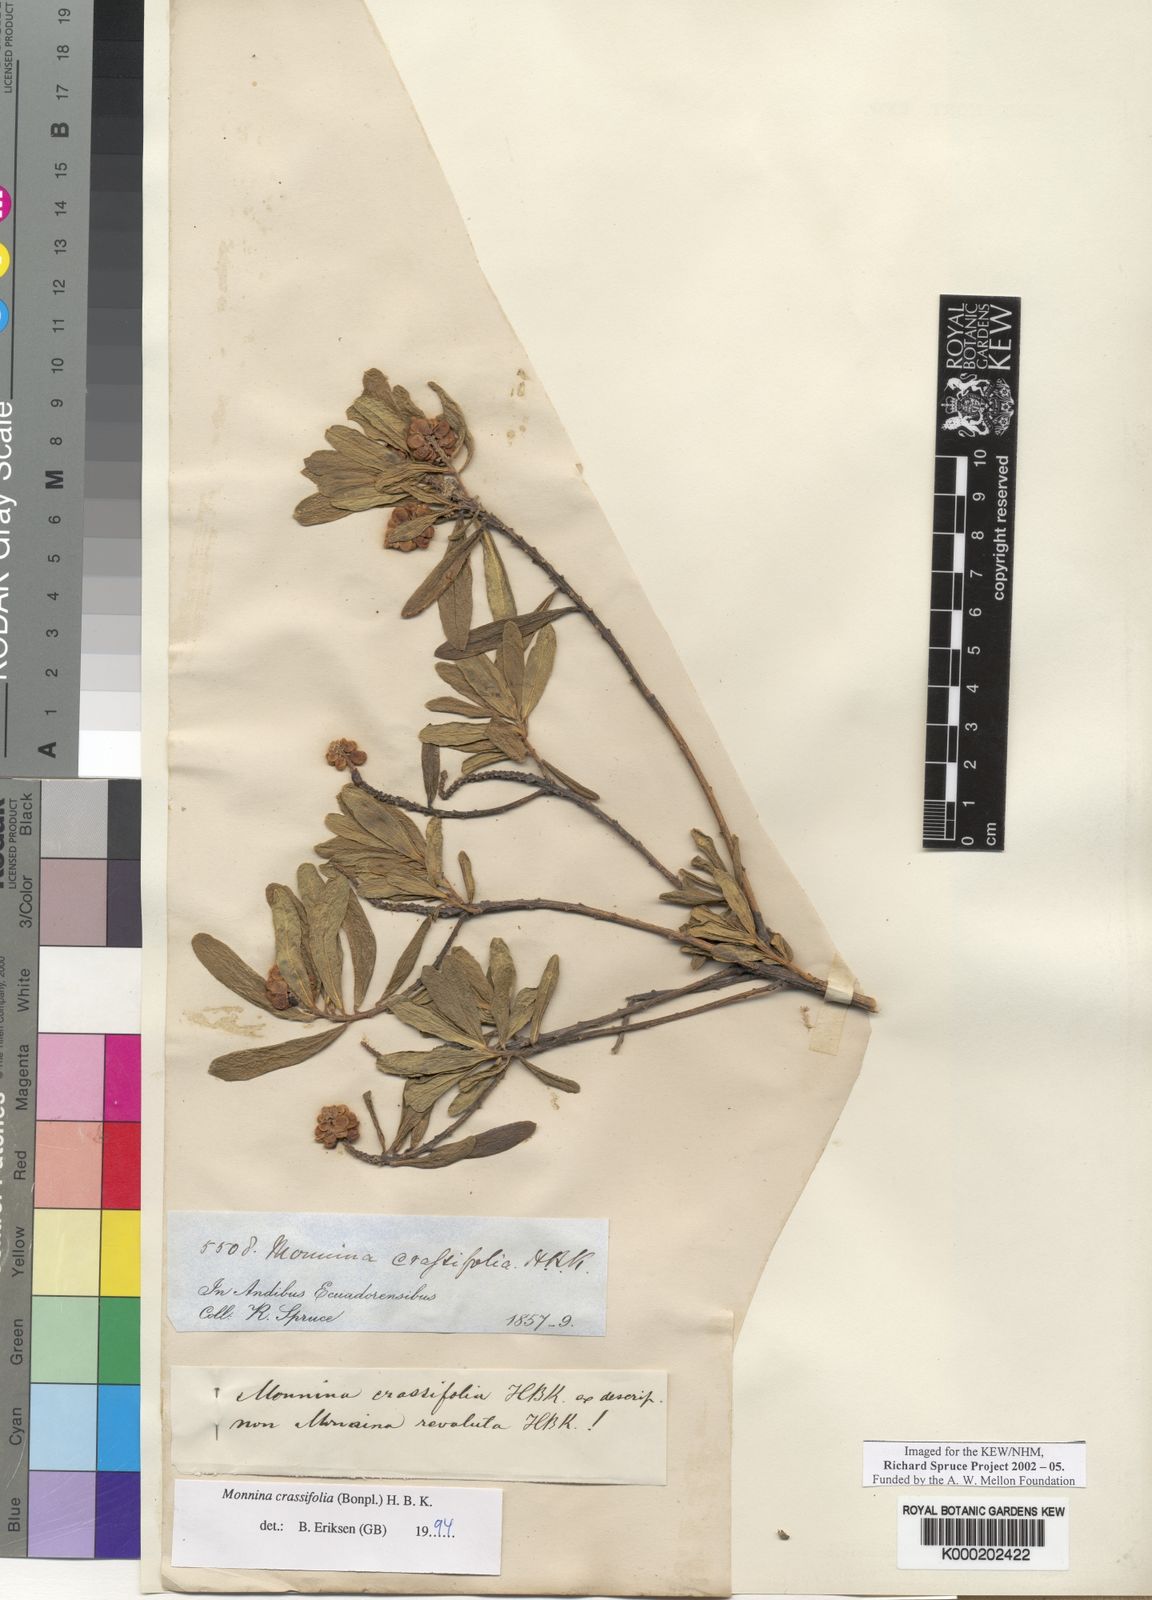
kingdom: Plantae
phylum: Tracheophyta
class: Magnoliopsida
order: Fabales
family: Polygalaceae
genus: Monnina
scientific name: Monnina crassifolia
